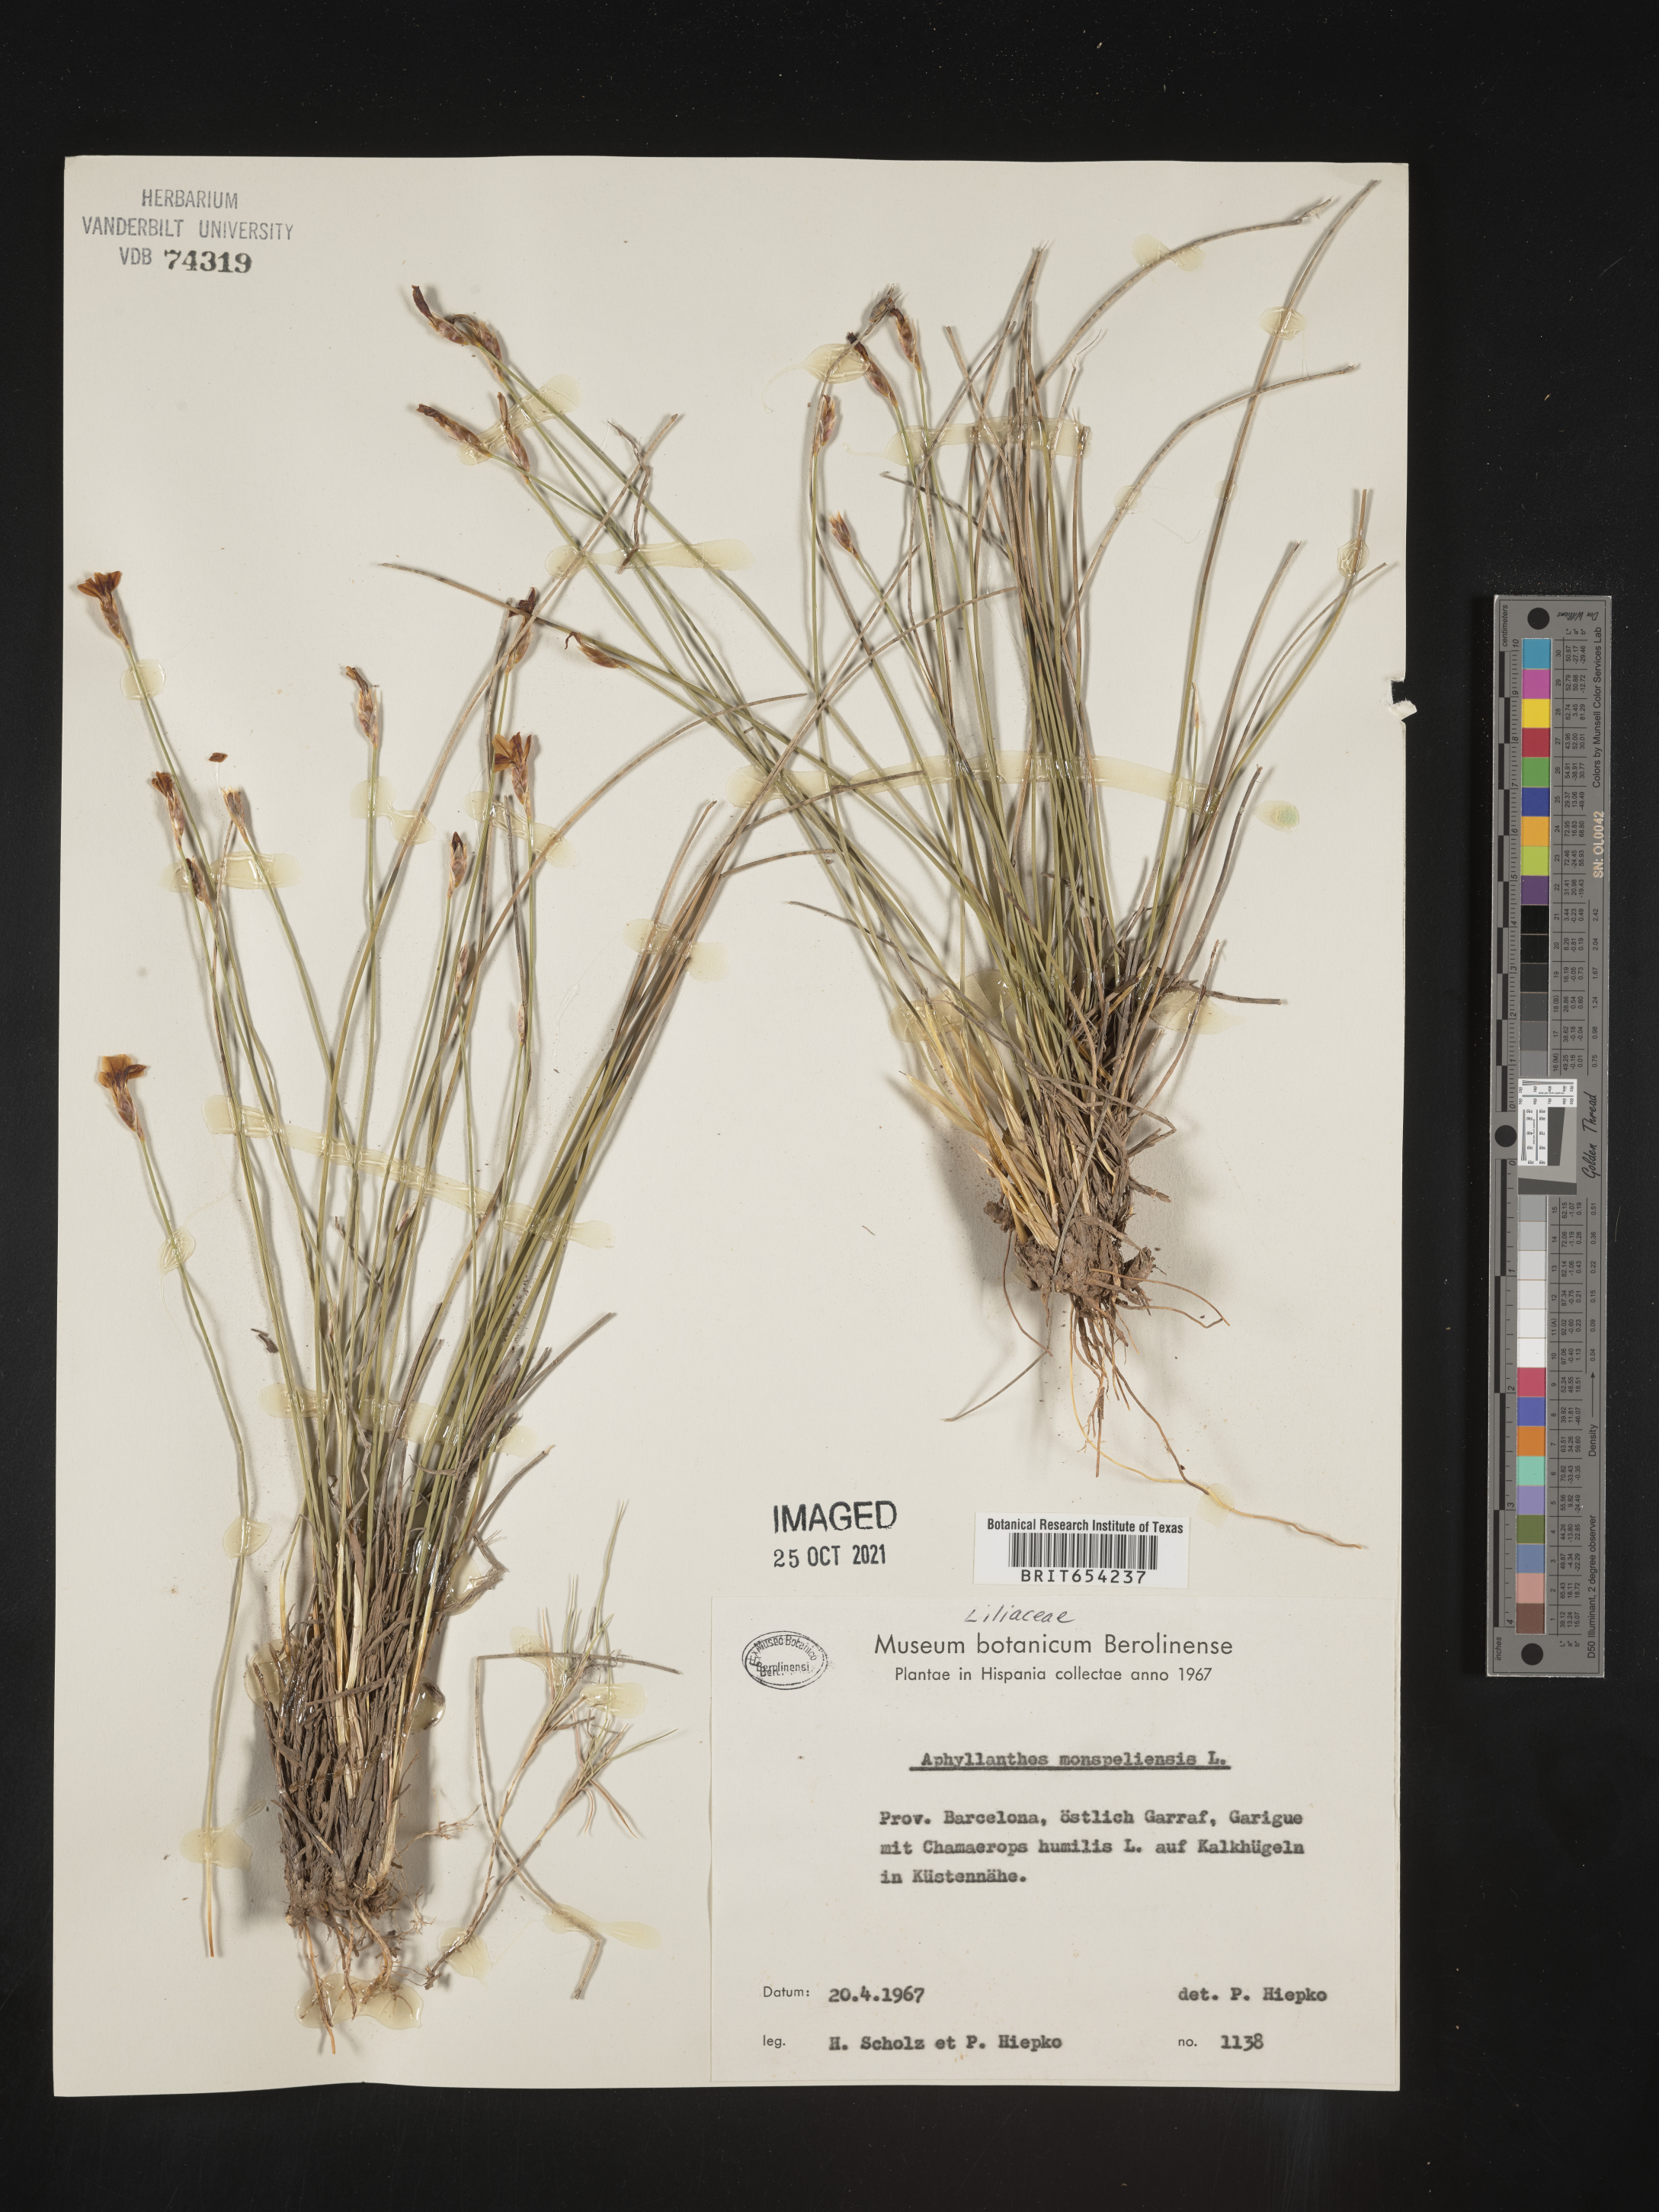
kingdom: Plantae
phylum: Tracheophyta
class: Liliopsida
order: Asparagales
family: Asparagaceae
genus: Aphyllanthes
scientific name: Aphyllanthes monspeliensis
